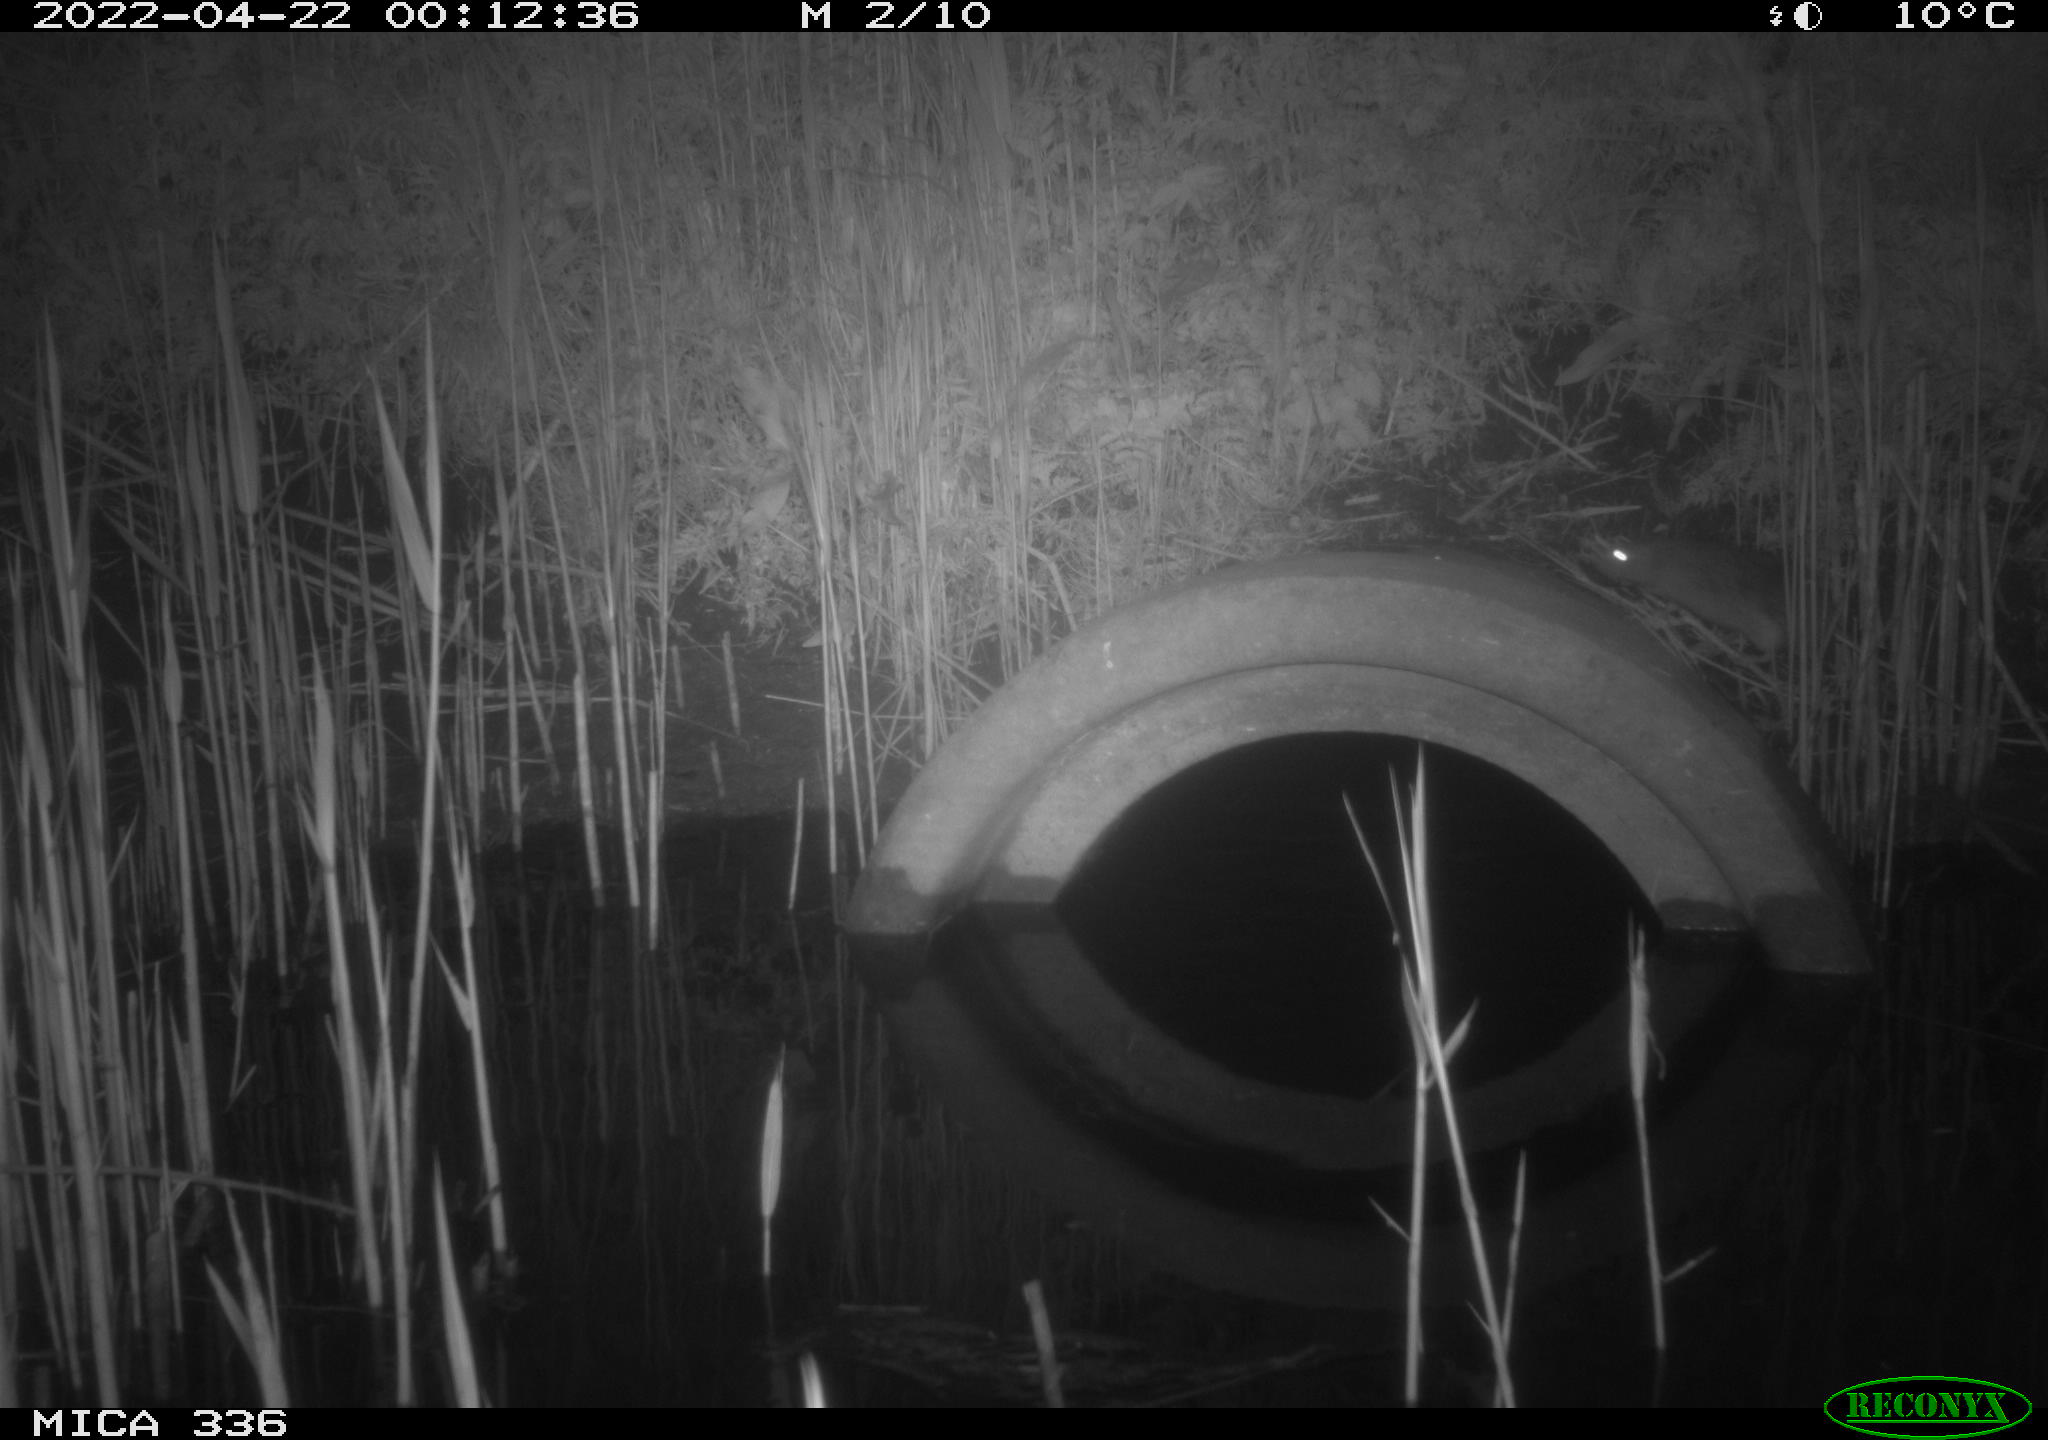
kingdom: Animalia
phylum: Chordata
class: Mammalia
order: Rodentia
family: Muridae
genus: Rattus
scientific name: Rattus norvegicus
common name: Brown rat
